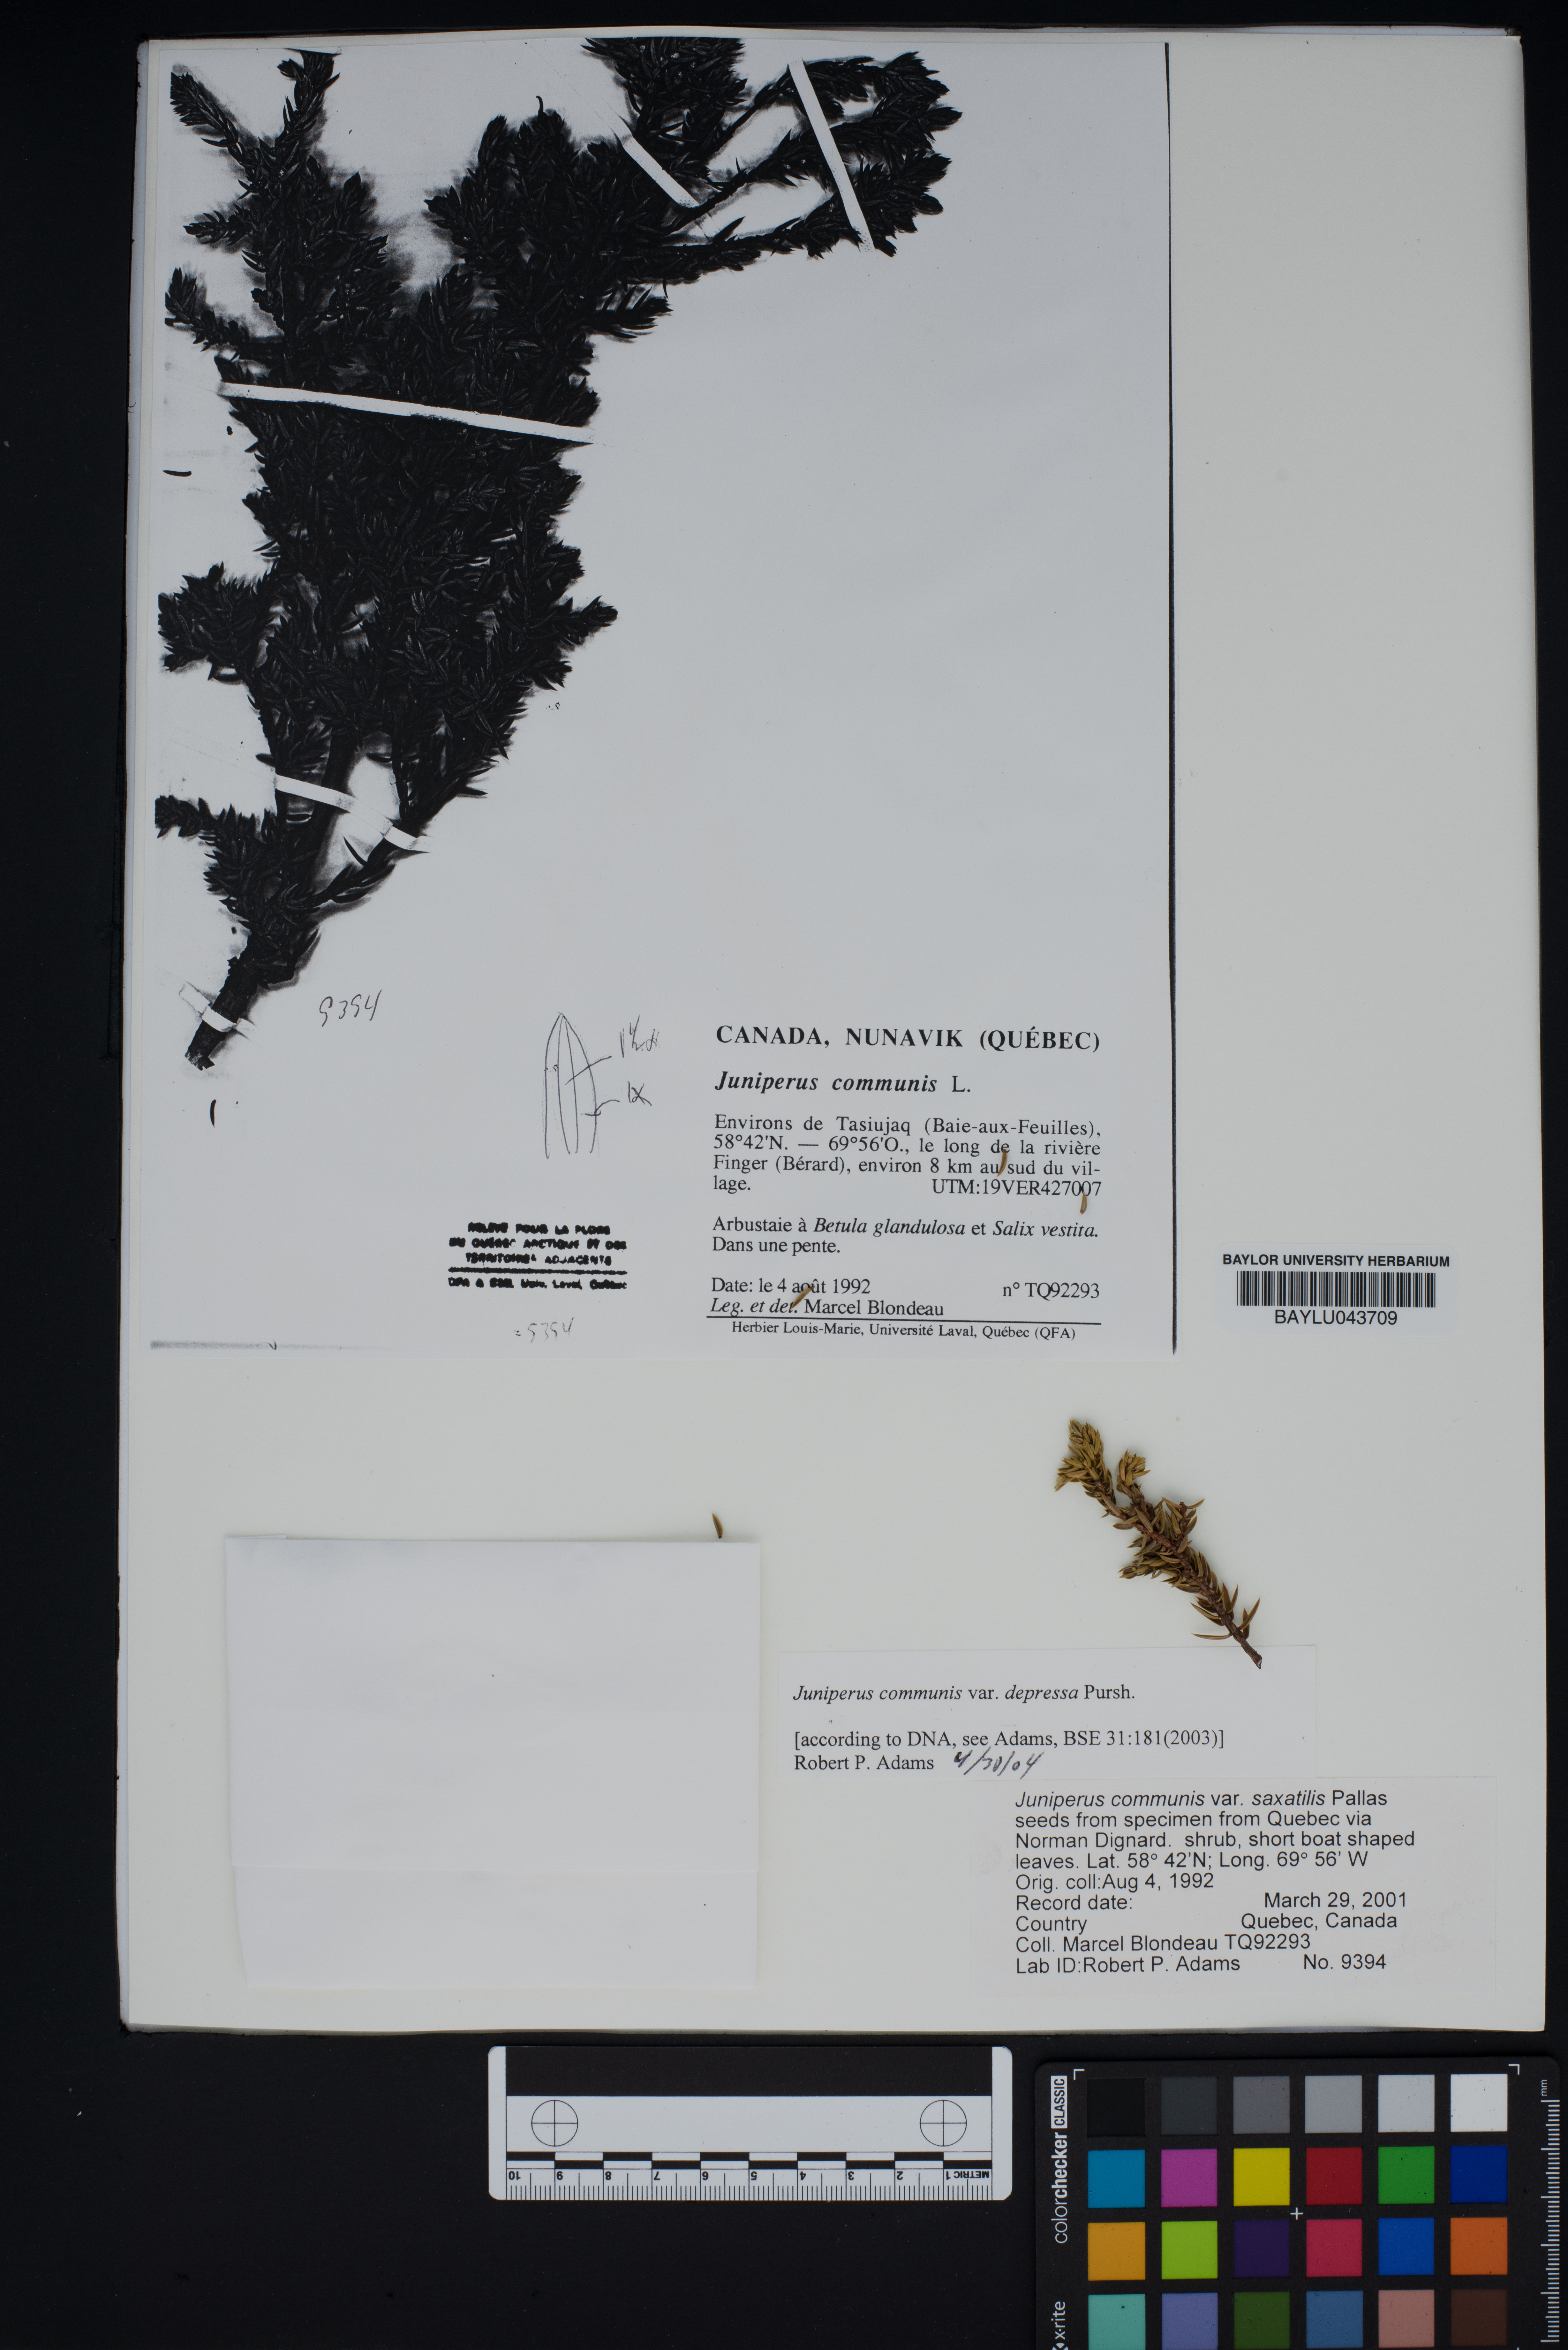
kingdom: Plantae
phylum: Tracheophyta
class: Pinopsida
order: Pinales
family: Cupressaceae
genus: Juniperus
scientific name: Juniperus communis
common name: Common juniper
